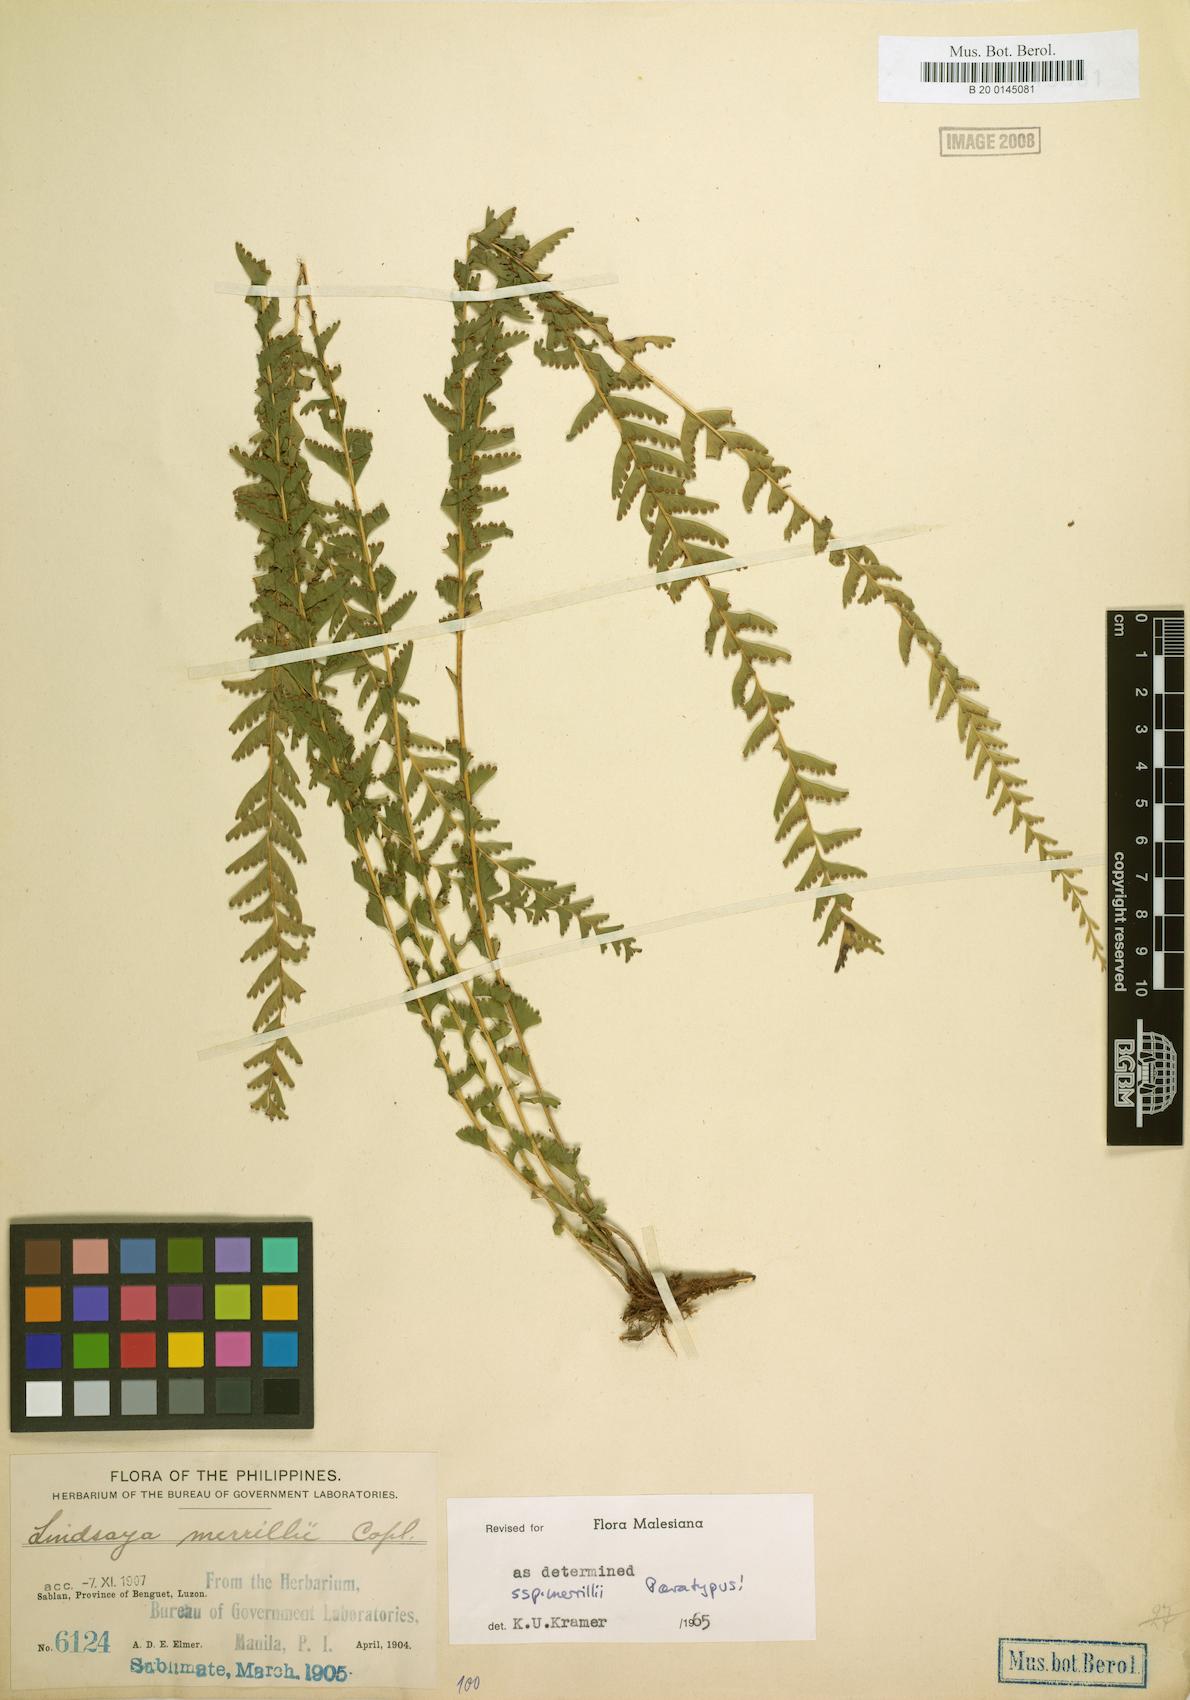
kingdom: Plantae
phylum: Tracheophyta
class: Polypodiopsida
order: Polypodiales
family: Lindsaeaceae
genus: Lindsaea
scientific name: Lindsaea merrillii
